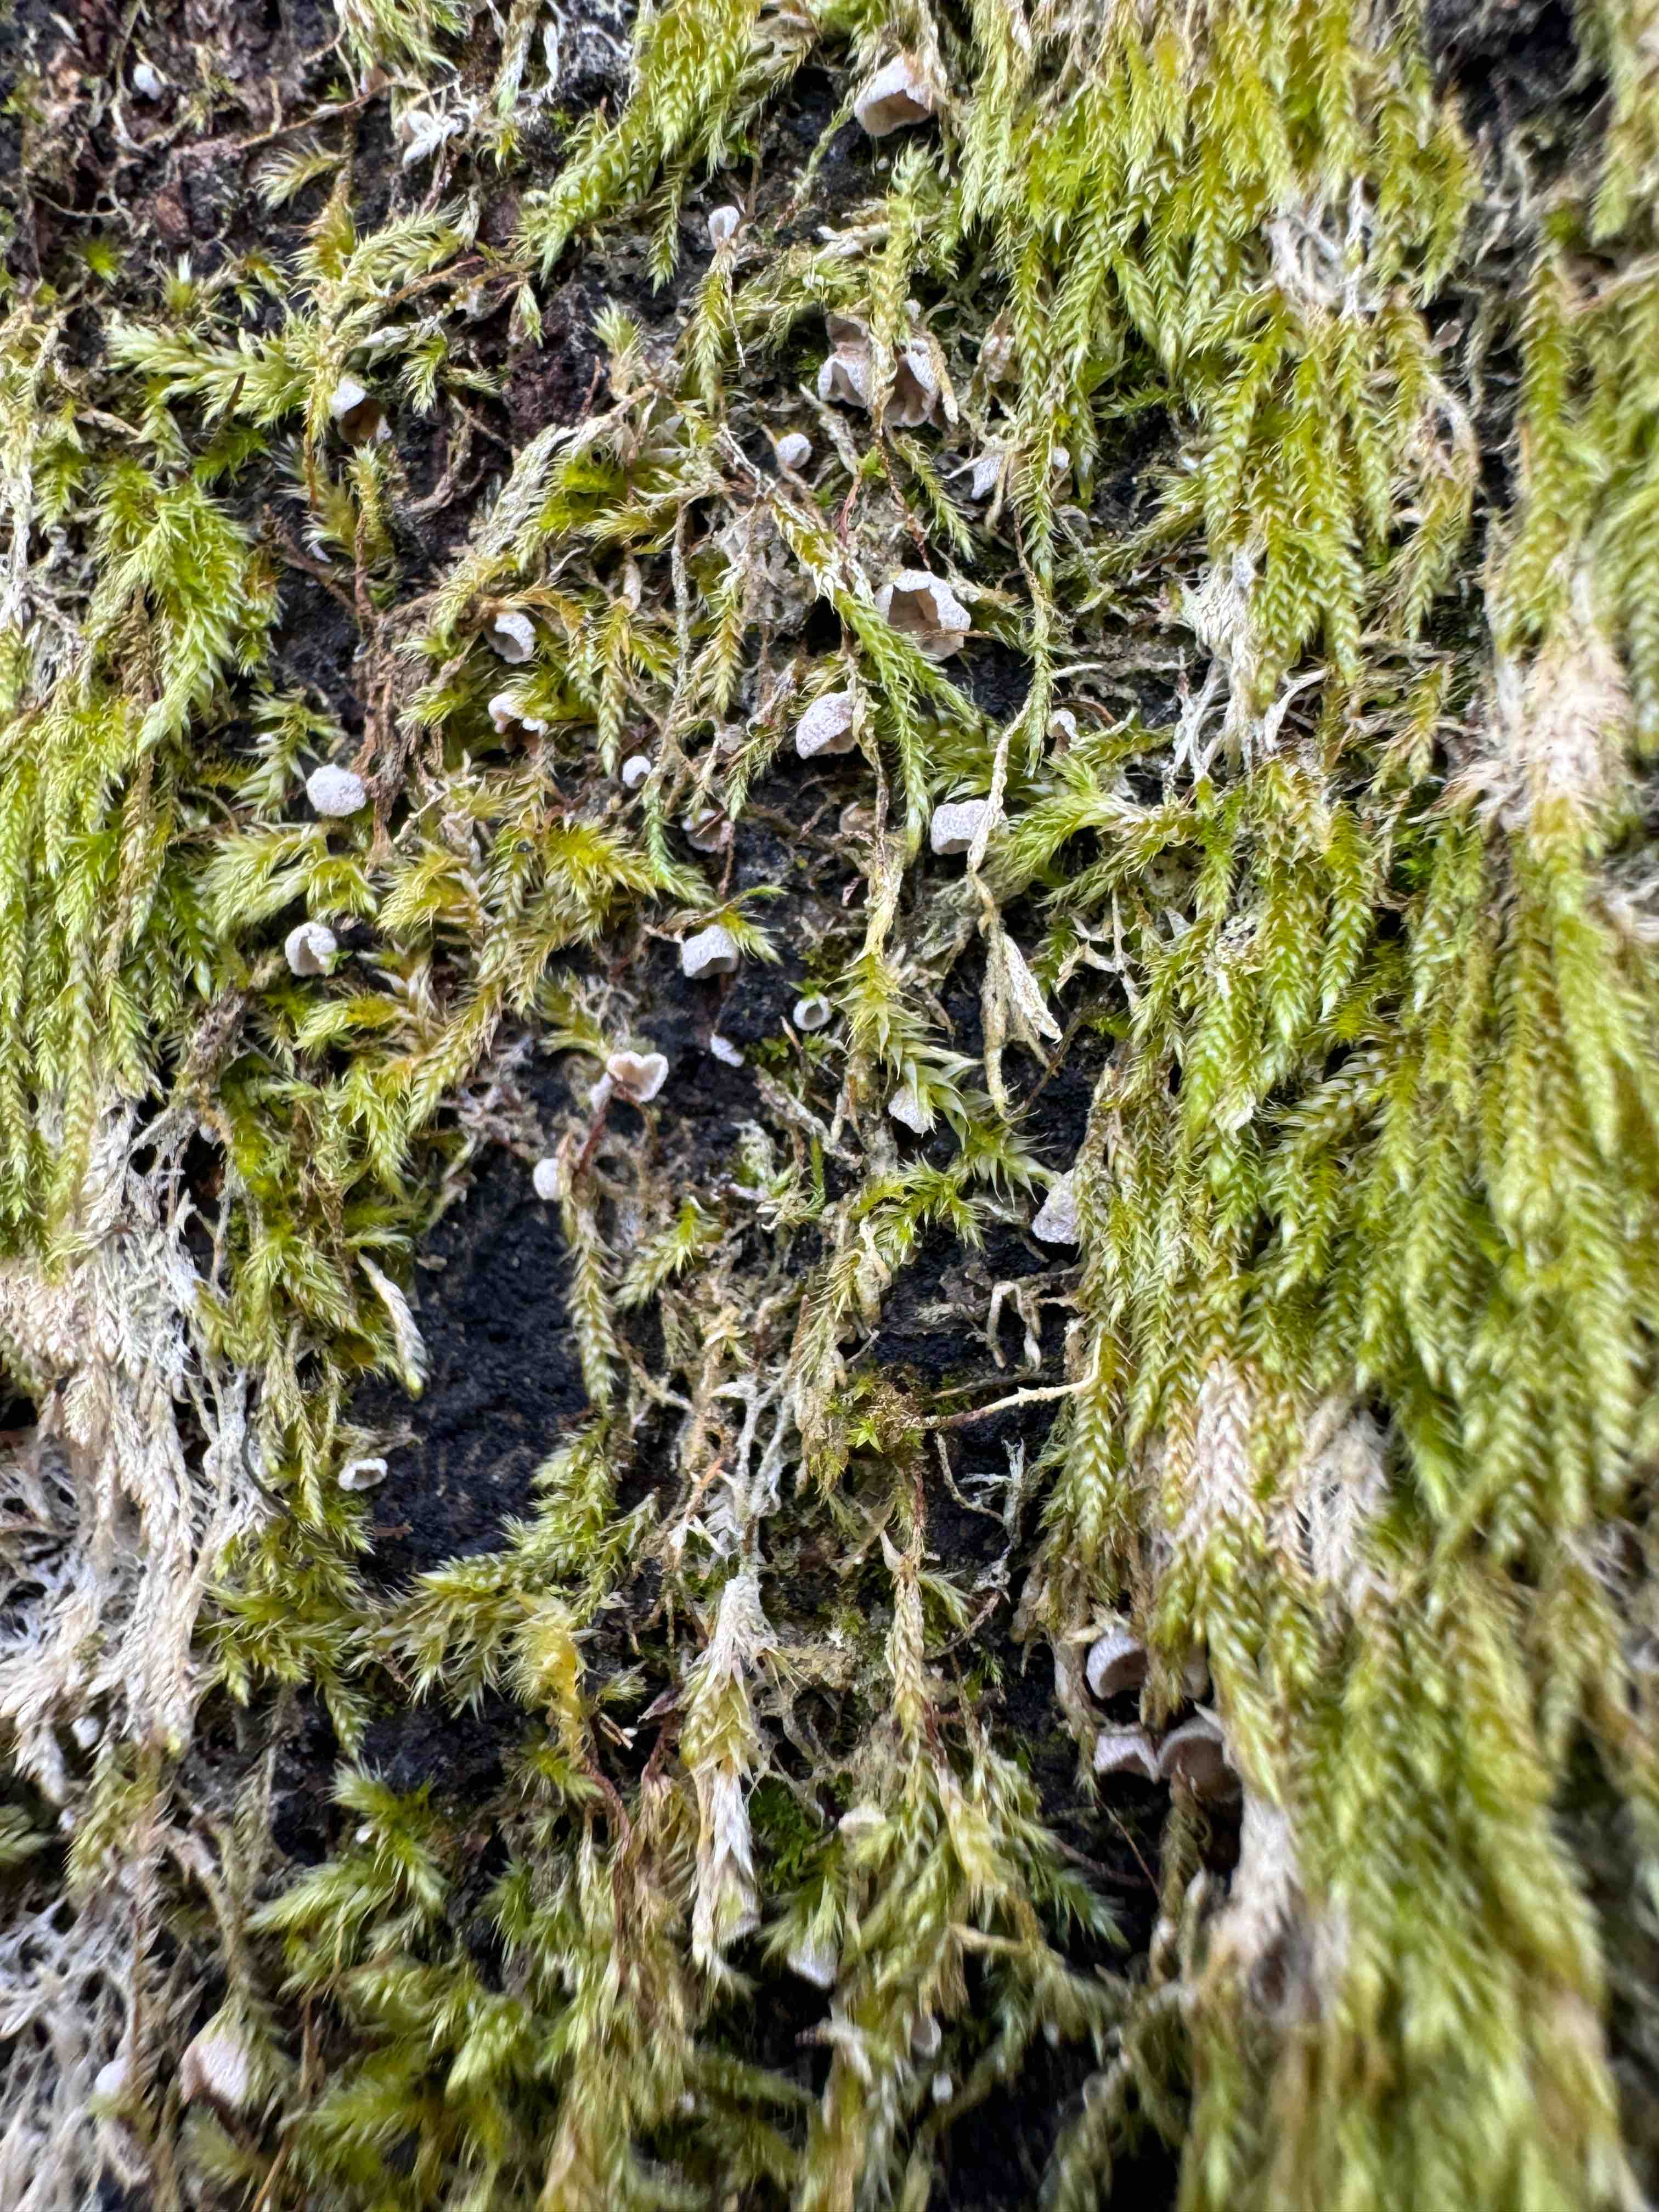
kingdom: Fungi
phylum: Basidiomycota
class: Agaricomycetes
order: Agaricales
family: Chromocyphellaceae
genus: Chromocyphella
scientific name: Chromocyphella muscicola
